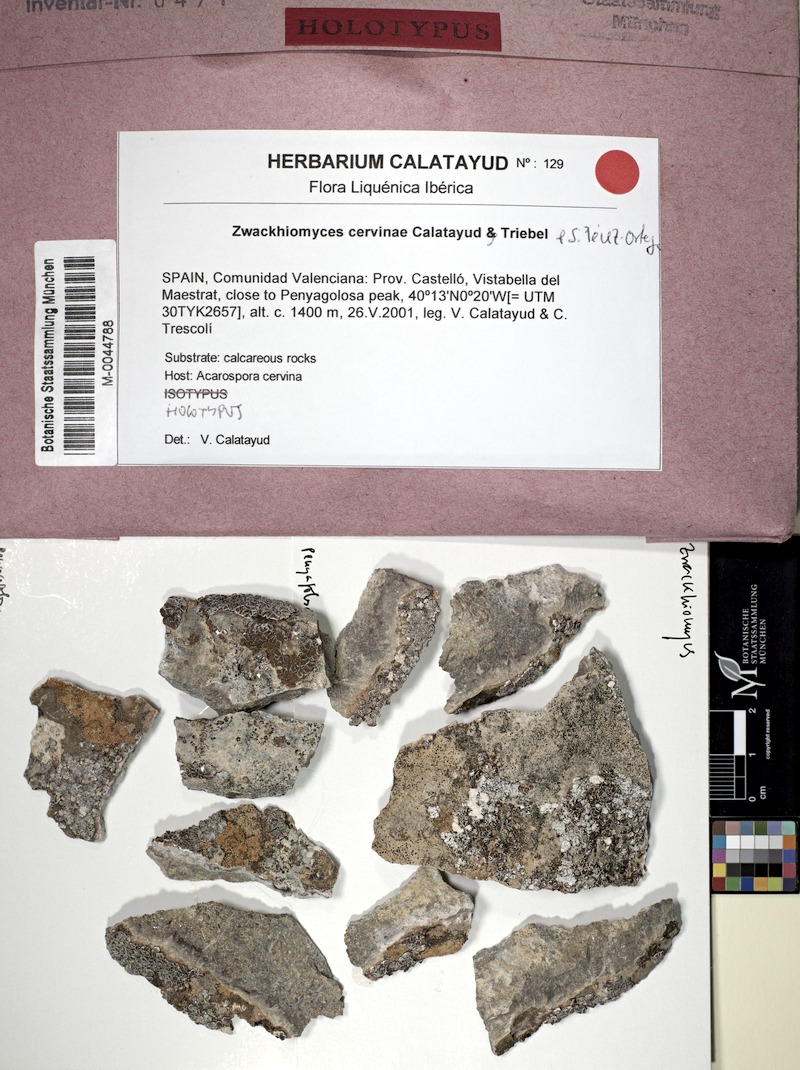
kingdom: Fungi
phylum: Ascomycota
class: Dothideomycetes
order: Collemopsidiales
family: Xanthopyreniaceae
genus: Zwackhiomyces
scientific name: Zwackhiomyces cervinae
